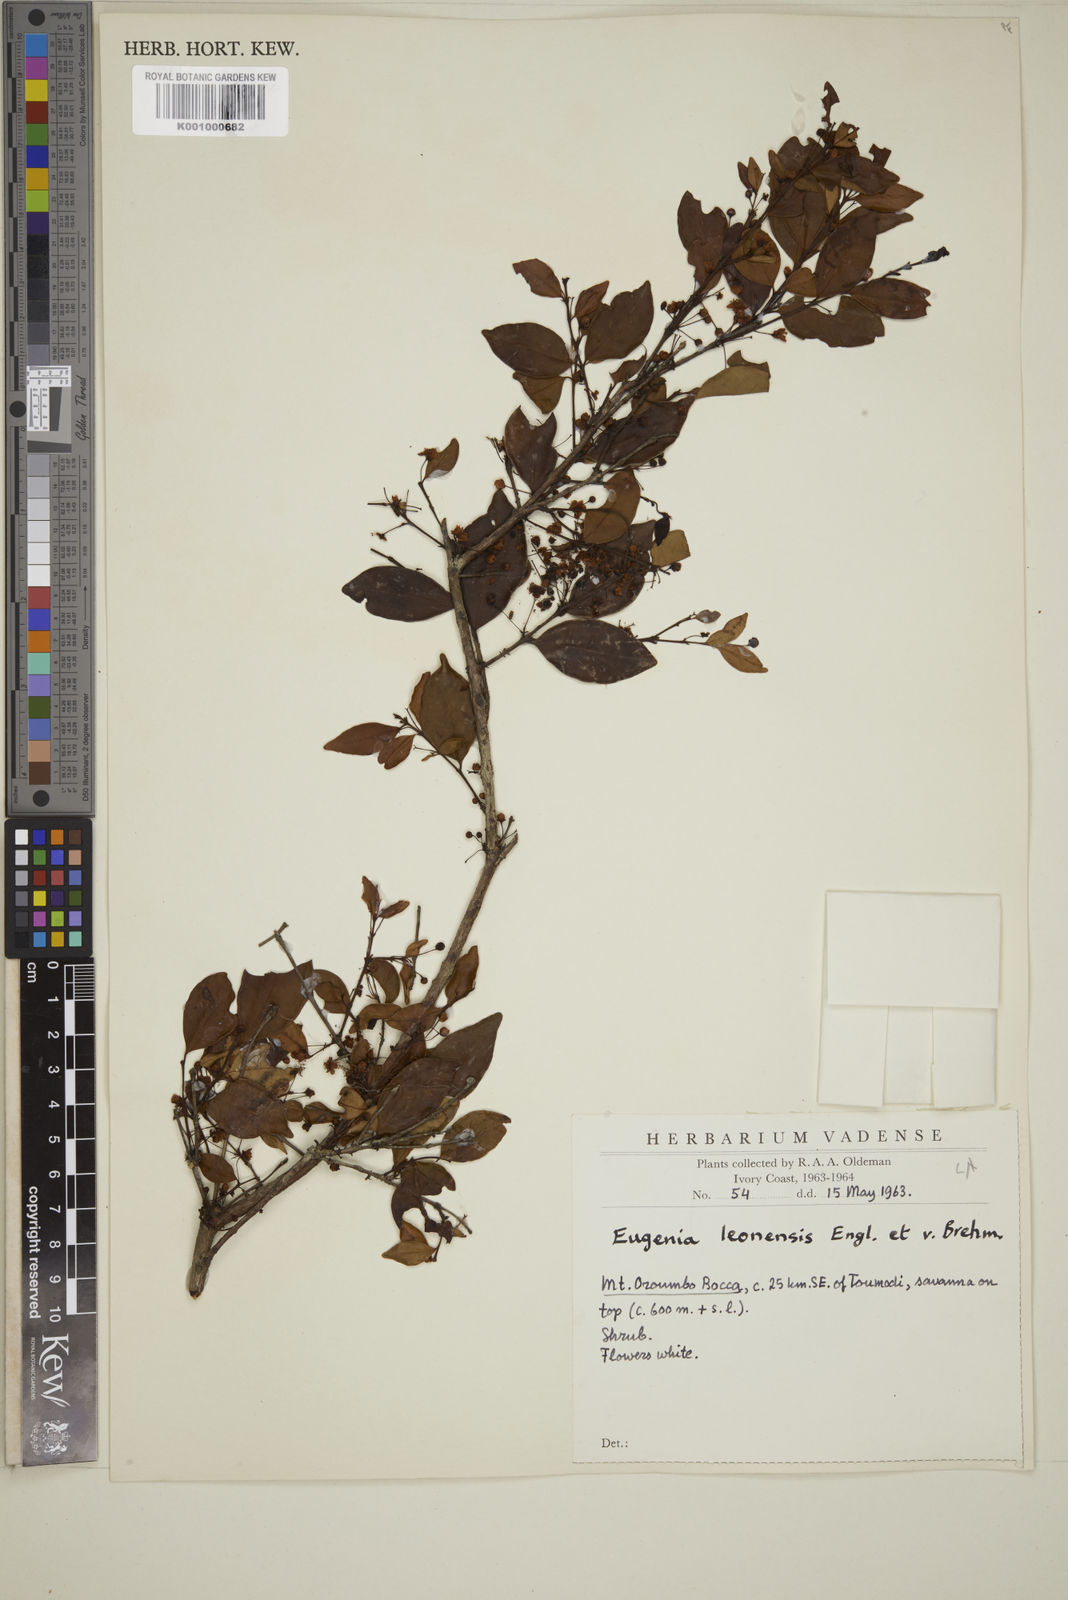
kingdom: Plantae
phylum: Tracheophyta
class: Magnoliopsida
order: Myrtales
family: Myrtaceae
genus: Eugenia
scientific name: Eugenia leonensis
